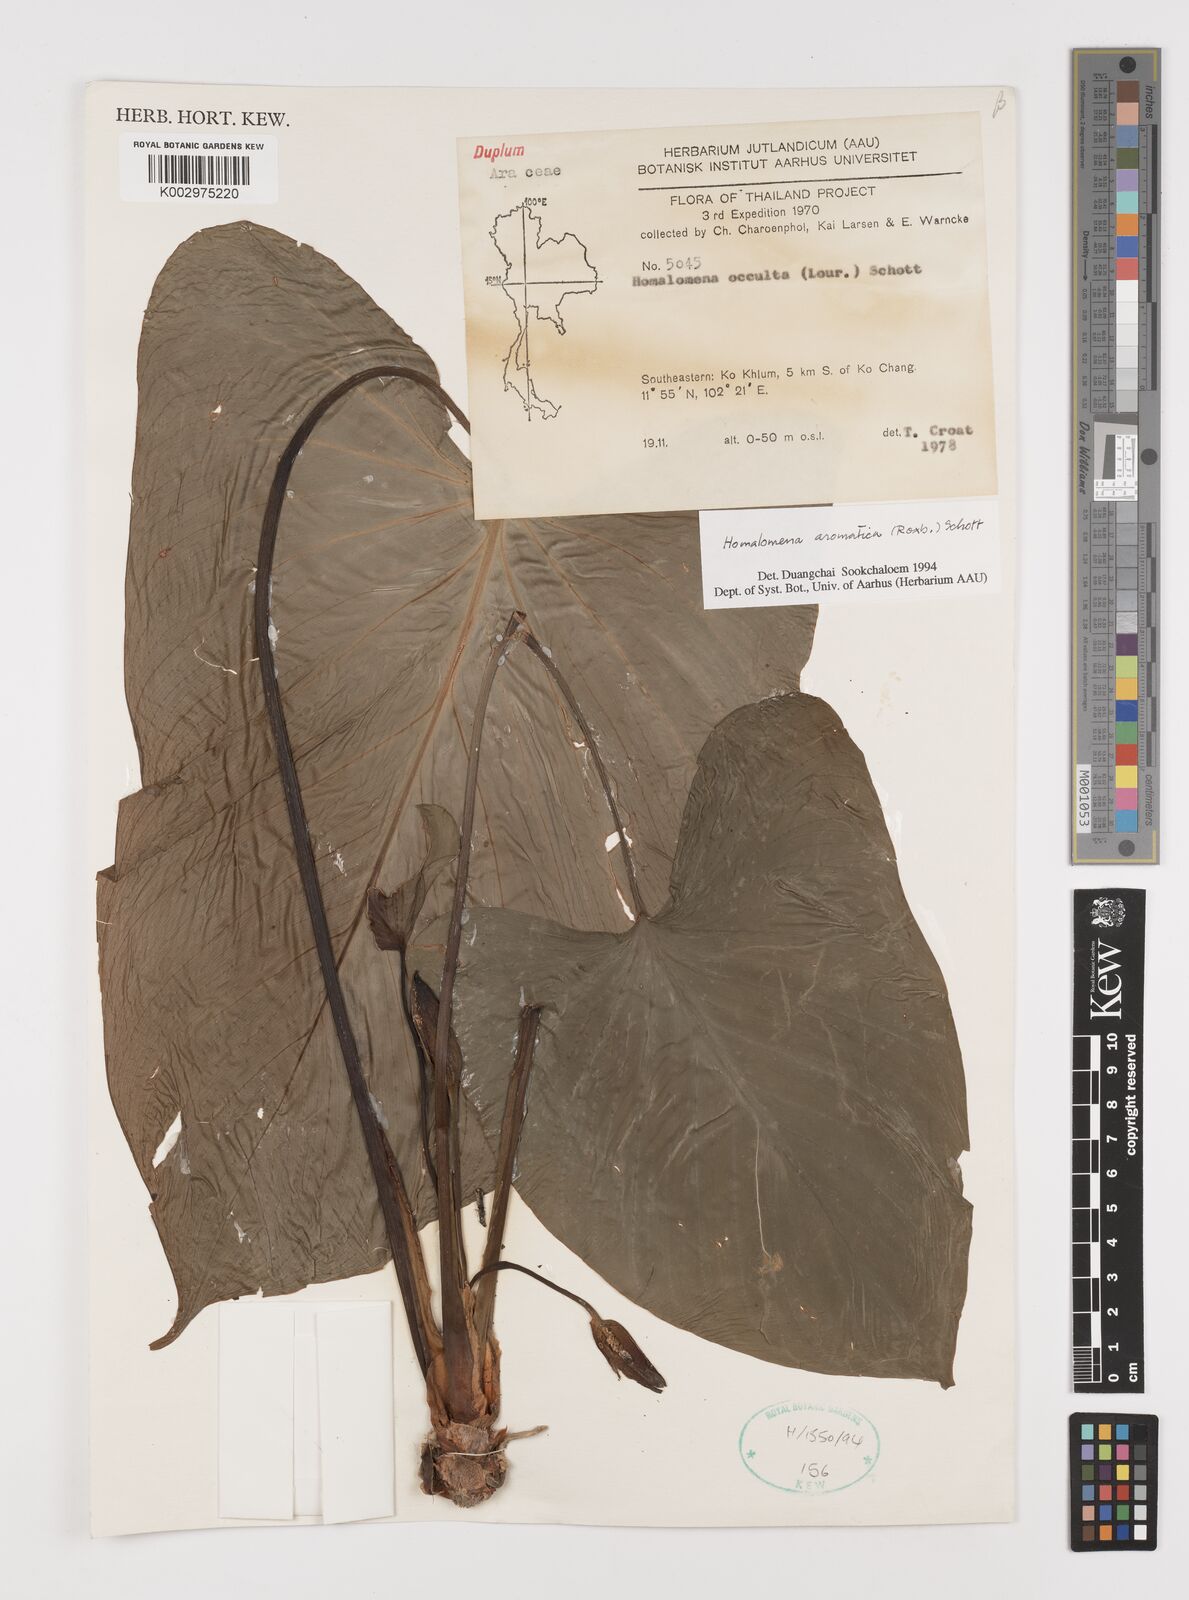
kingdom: Plantae
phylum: Tracheophyta
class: Liliopsida
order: Alismatales
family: Araceae
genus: Homalomena
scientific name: Homalomena aromatica
